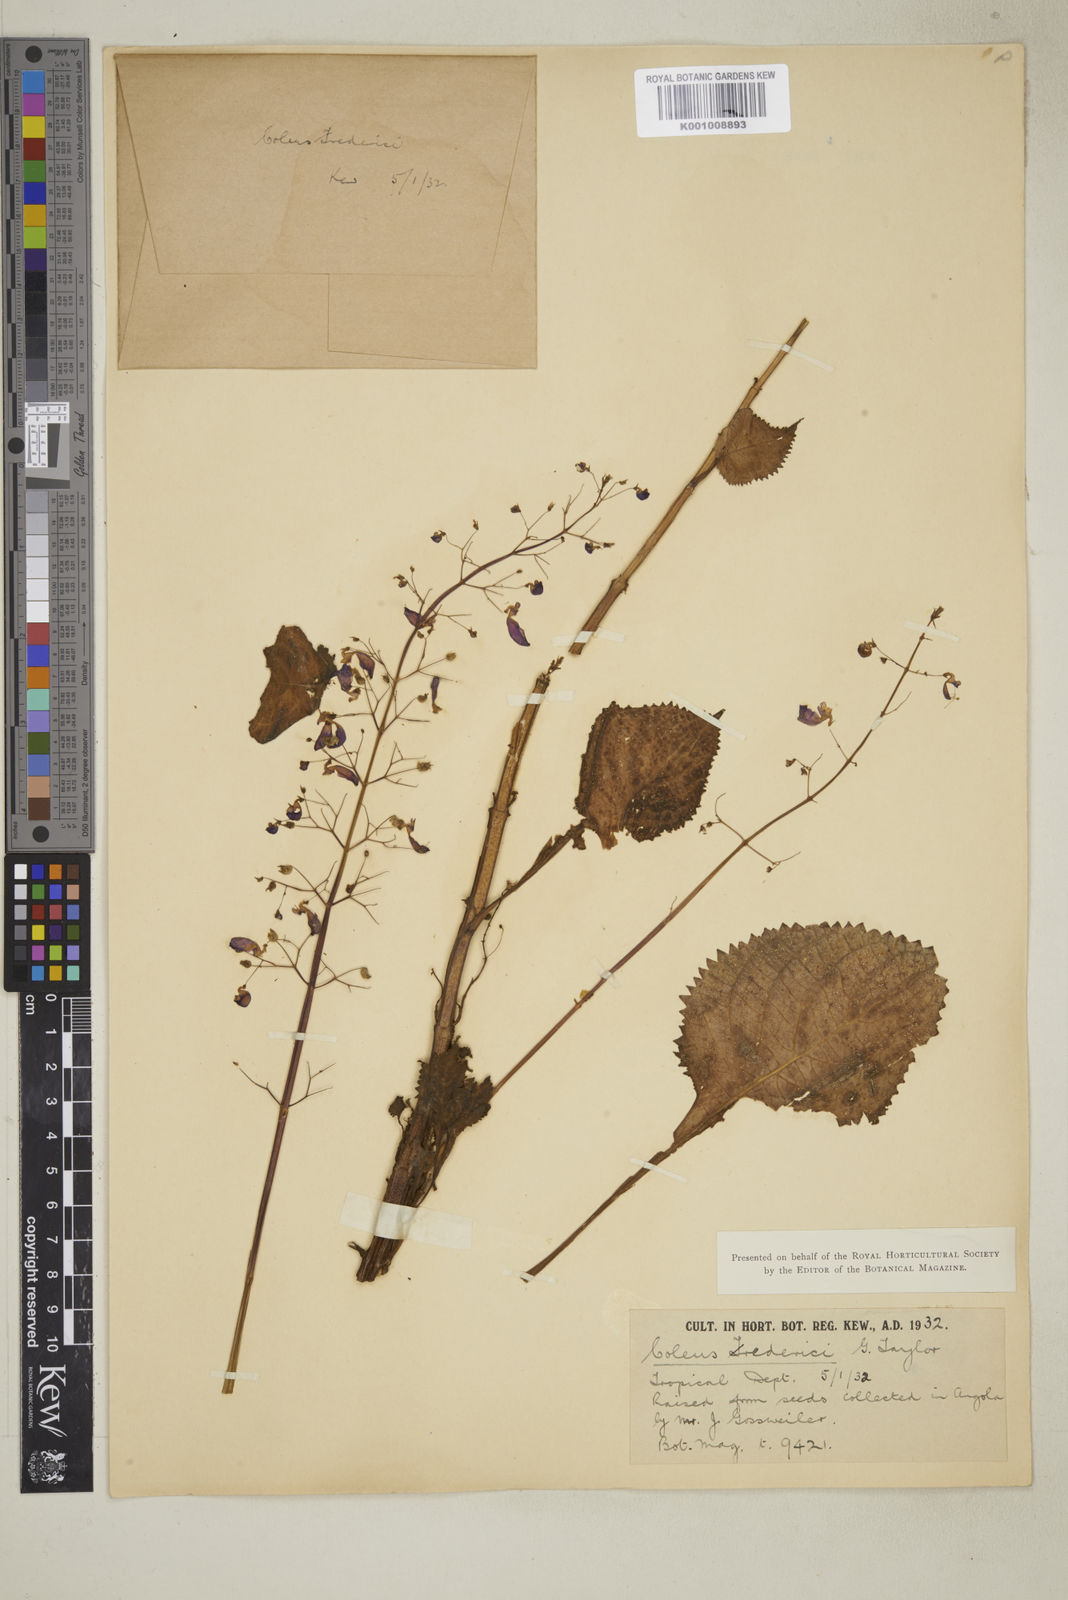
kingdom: Plantae
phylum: Tracheophyta
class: Magnoliopsida
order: Lamiales
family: Lamiaceae
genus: Plectranthus
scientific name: Plectranthus
